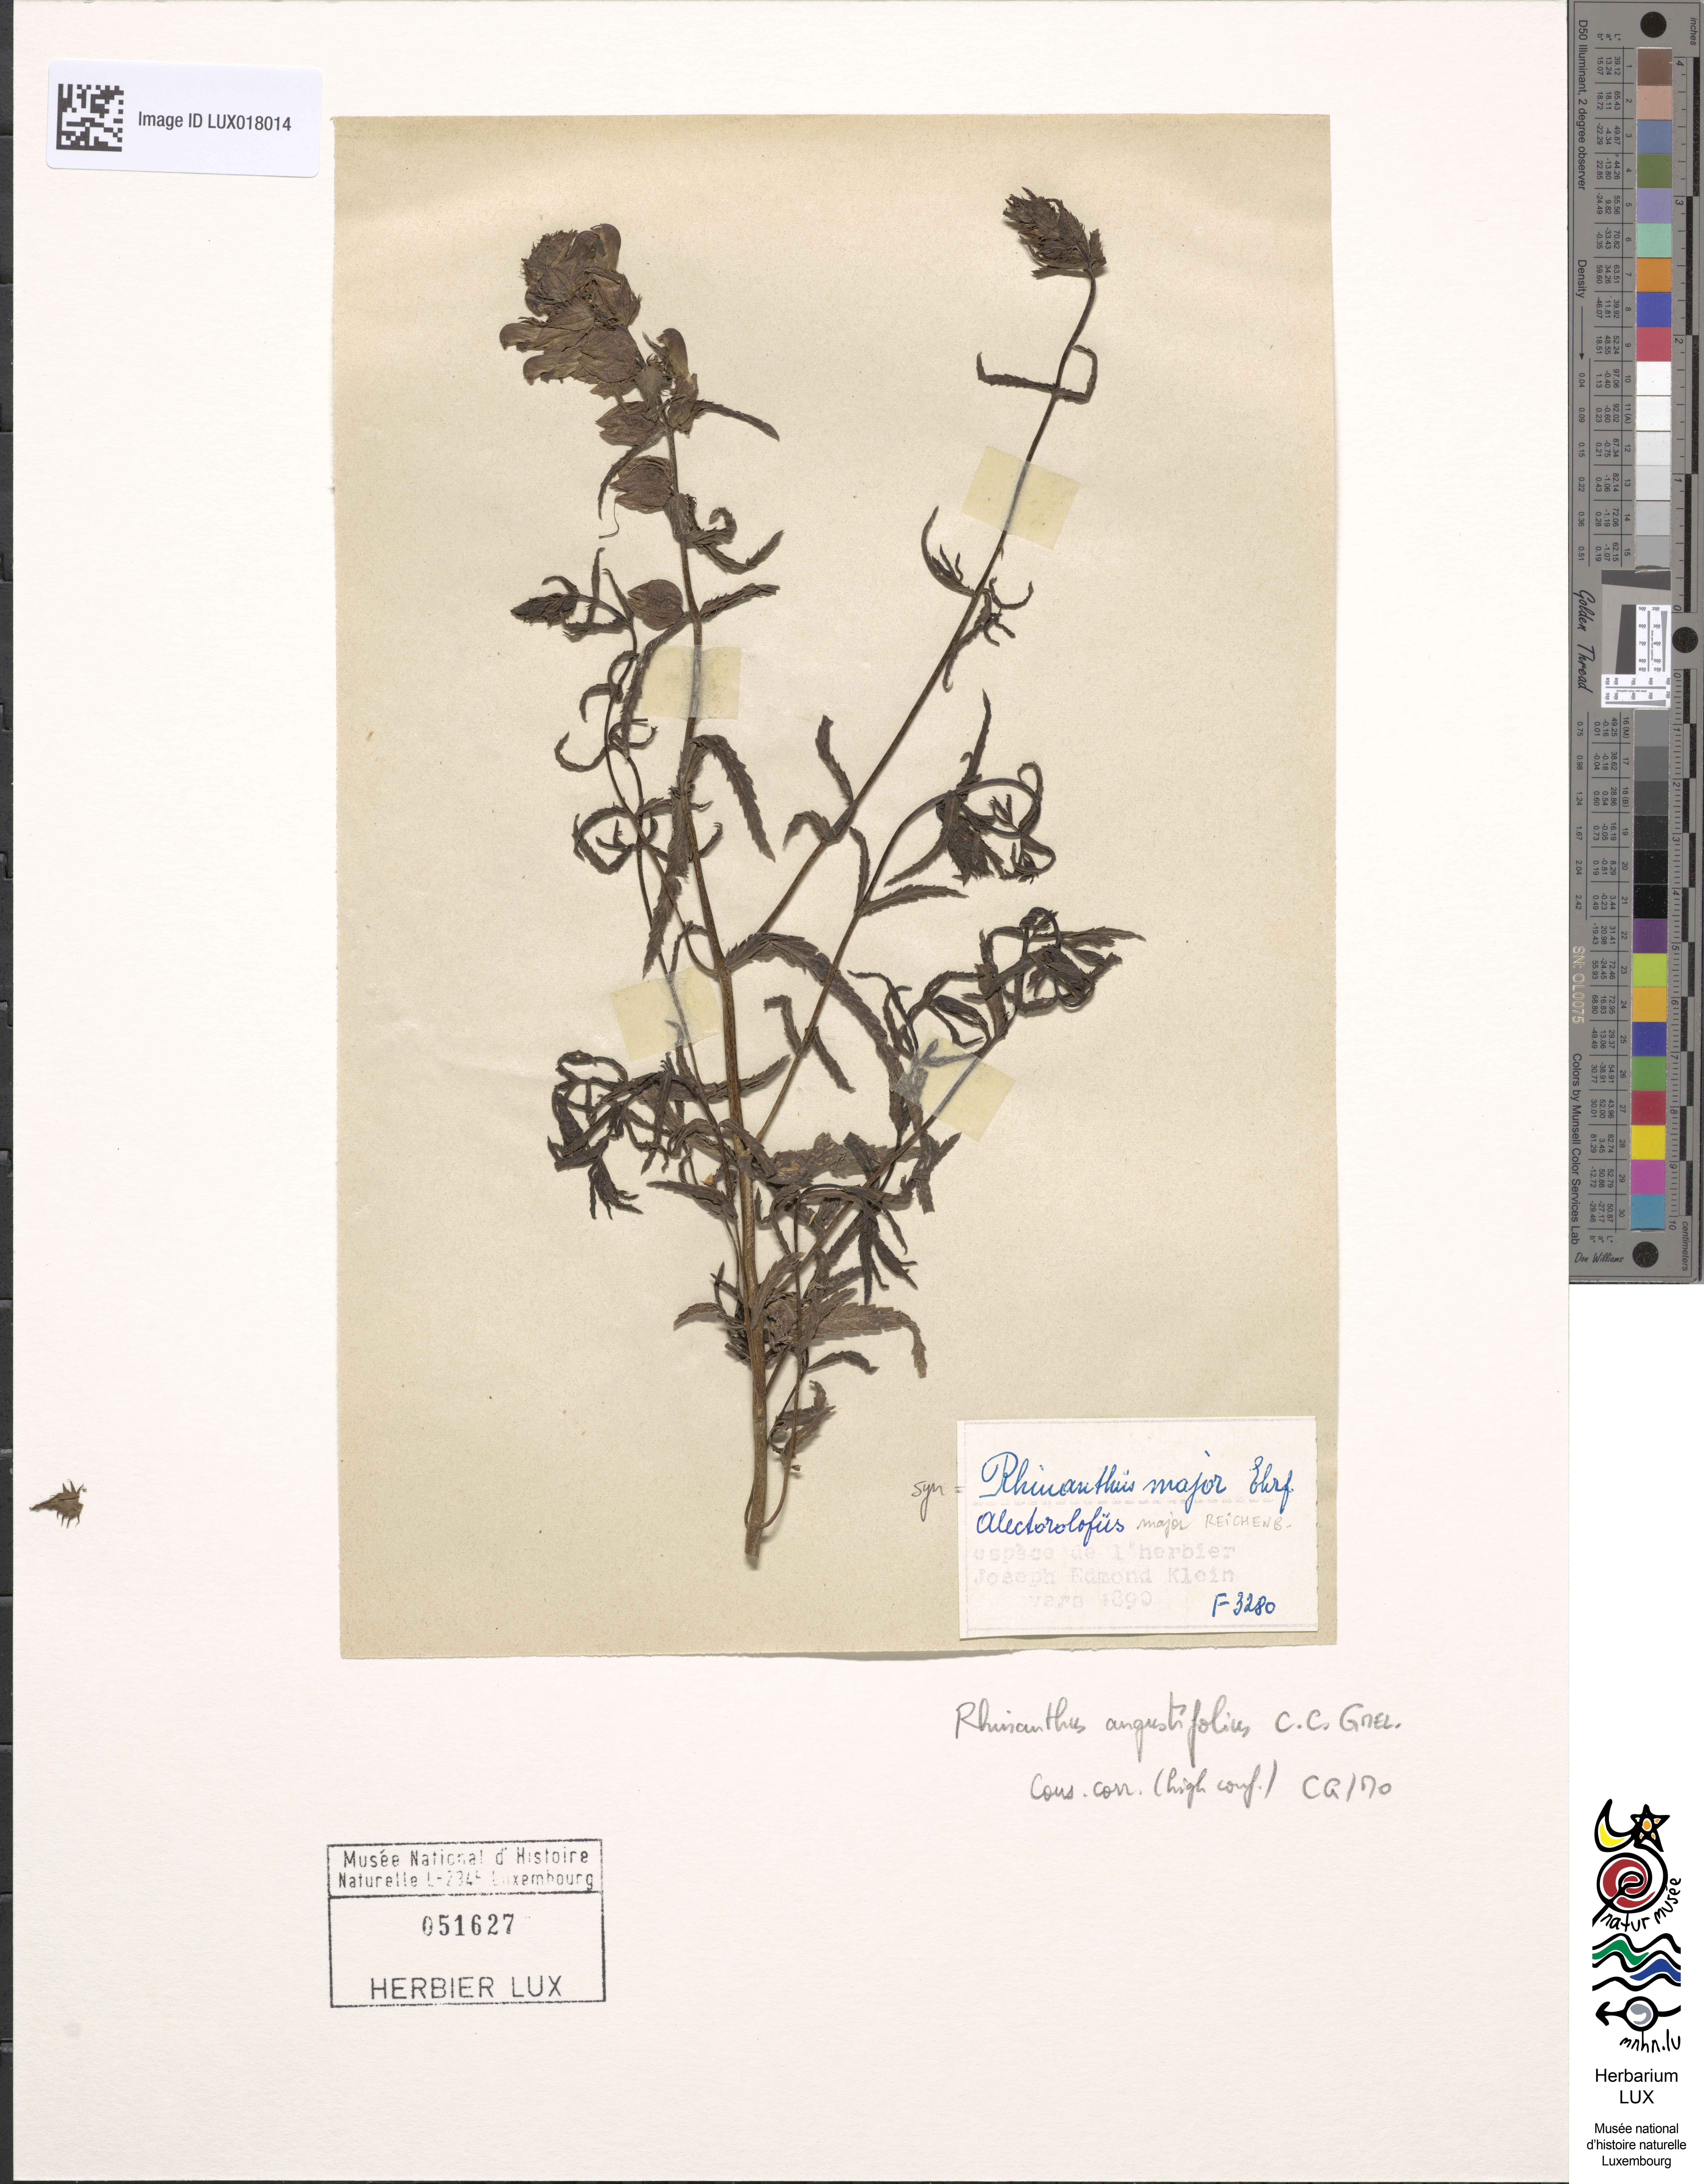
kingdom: Plantae
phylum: Tracheophyta
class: Magnoliopsida
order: Lamiales
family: Orobanchaceae
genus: Rhinanthus
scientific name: Rhinanthus
